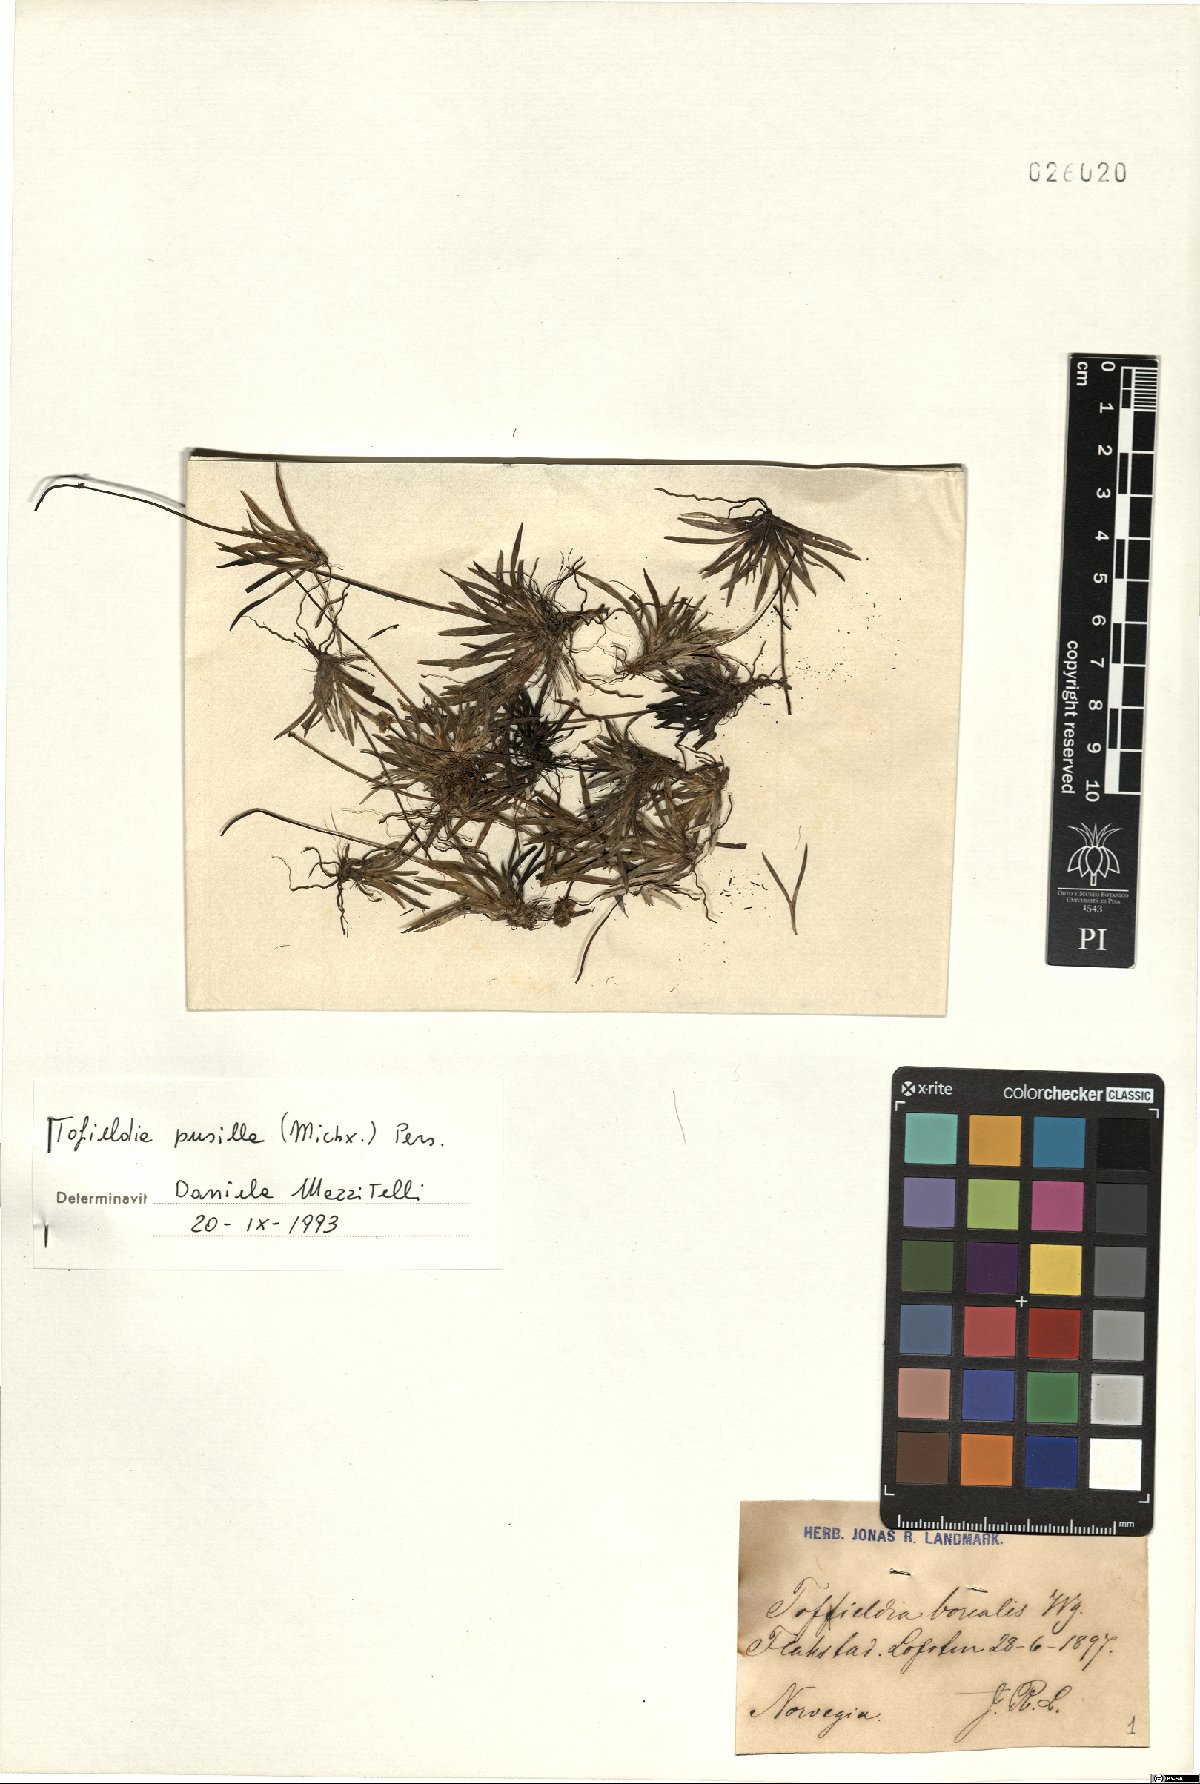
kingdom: Plantae
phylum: Tracheophyta
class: Liliopsida
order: Alismatales
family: Tofieldiaceae
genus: Tofieldia
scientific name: Tofieldia pusilla
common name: Scottish false asphodel
